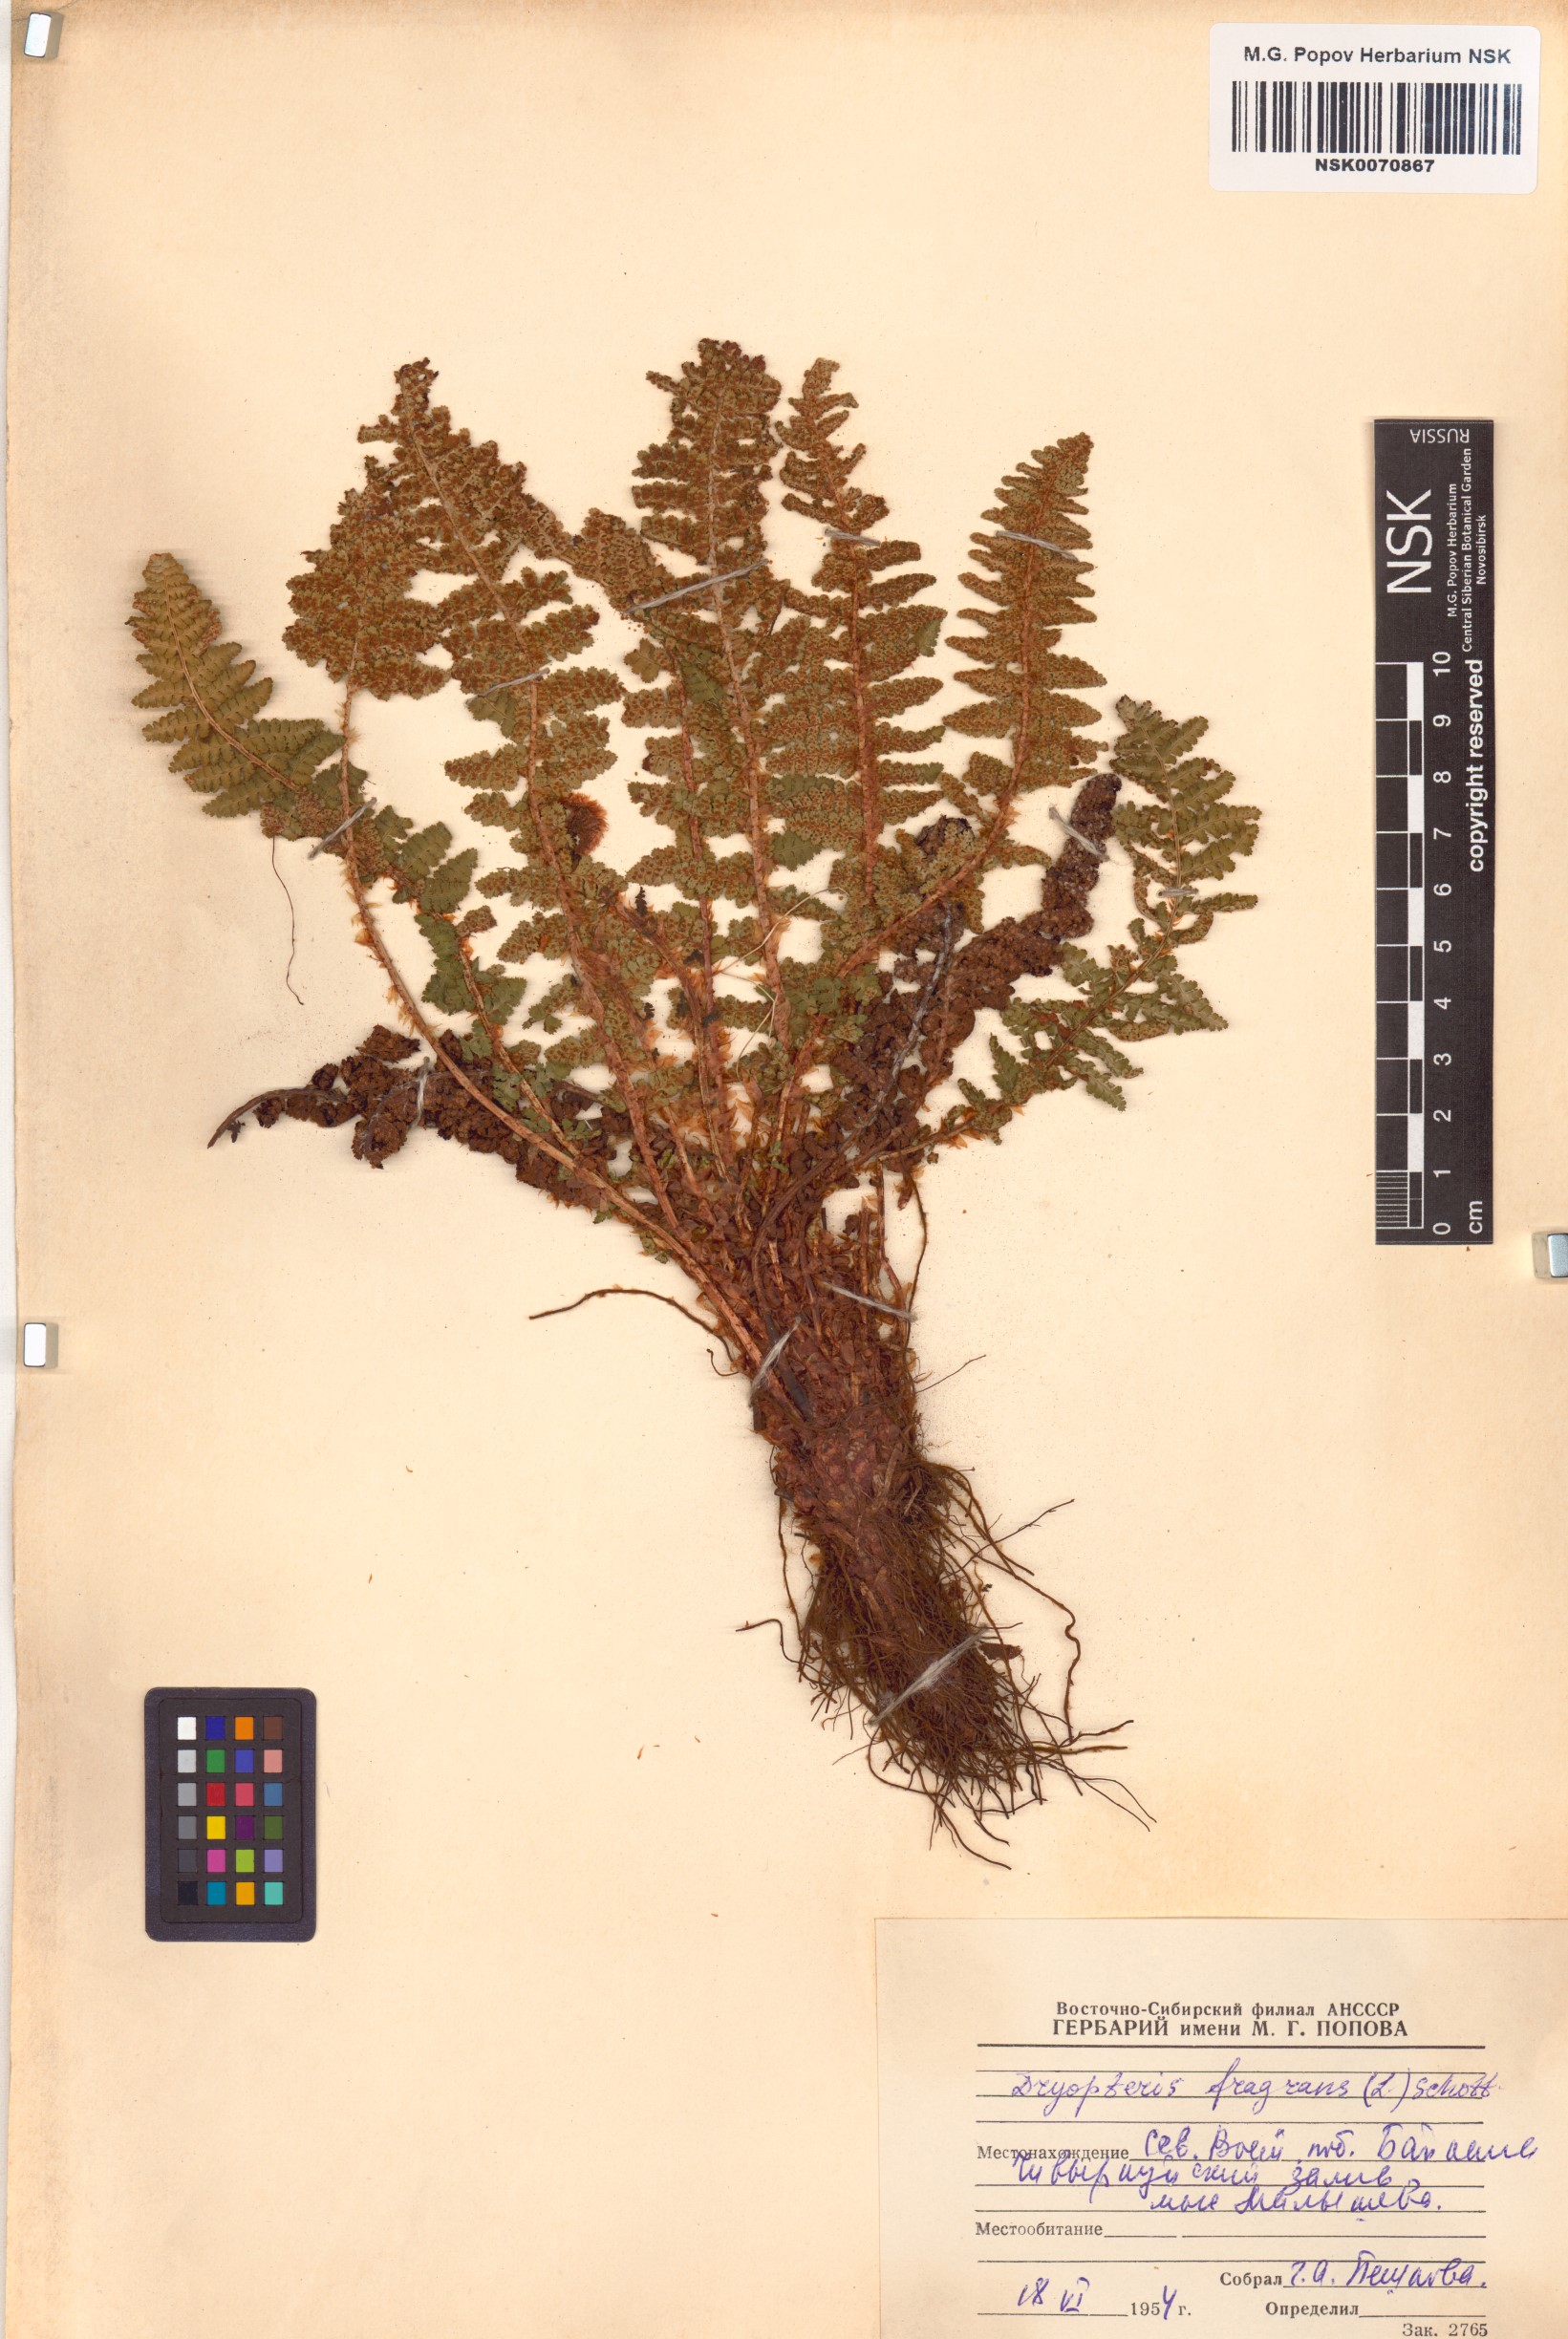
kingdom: Plantae
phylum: Tracheophyta
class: Polypodiopsida
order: Polypodiales
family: Dryopteridaceae
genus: Dryopteris
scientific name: Dryopteris fragrans
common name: Fragrant wood fern
